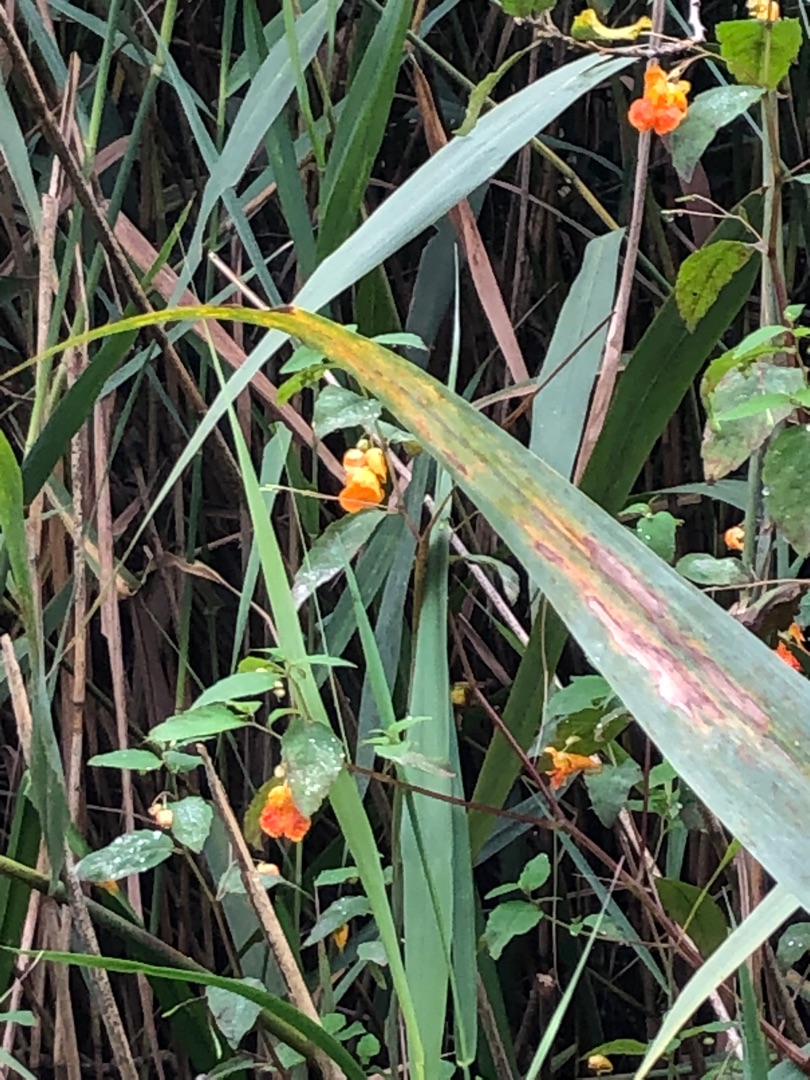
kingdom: Plantae
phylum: Tracheophyta
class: Magnoliopsida
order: Ericales
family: Balsaminaceae
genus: Impatiens
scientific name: Impatiens capensis
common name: Orange-balsamin
